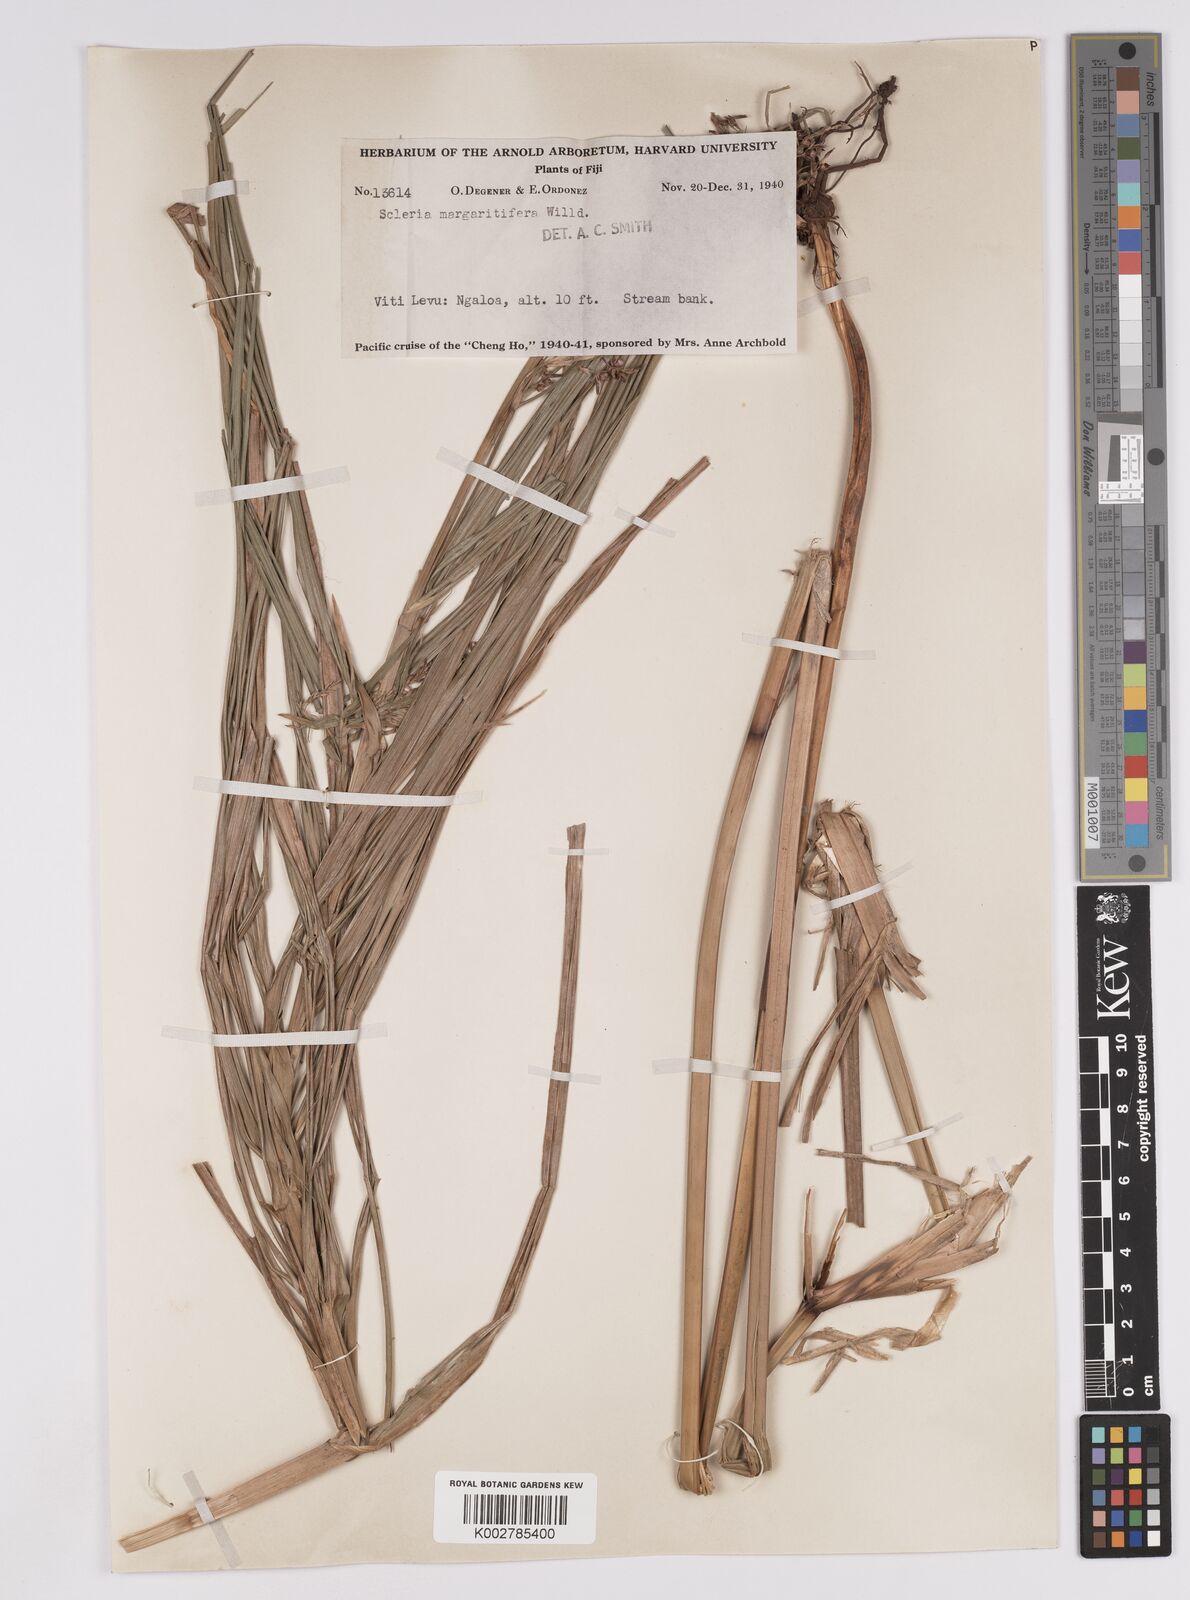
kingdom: Plantae
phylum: Tracheophyta
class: Liliopsida
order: Poales
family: Cyperaceae
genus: Scleria
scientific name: Scleria polycarpa
